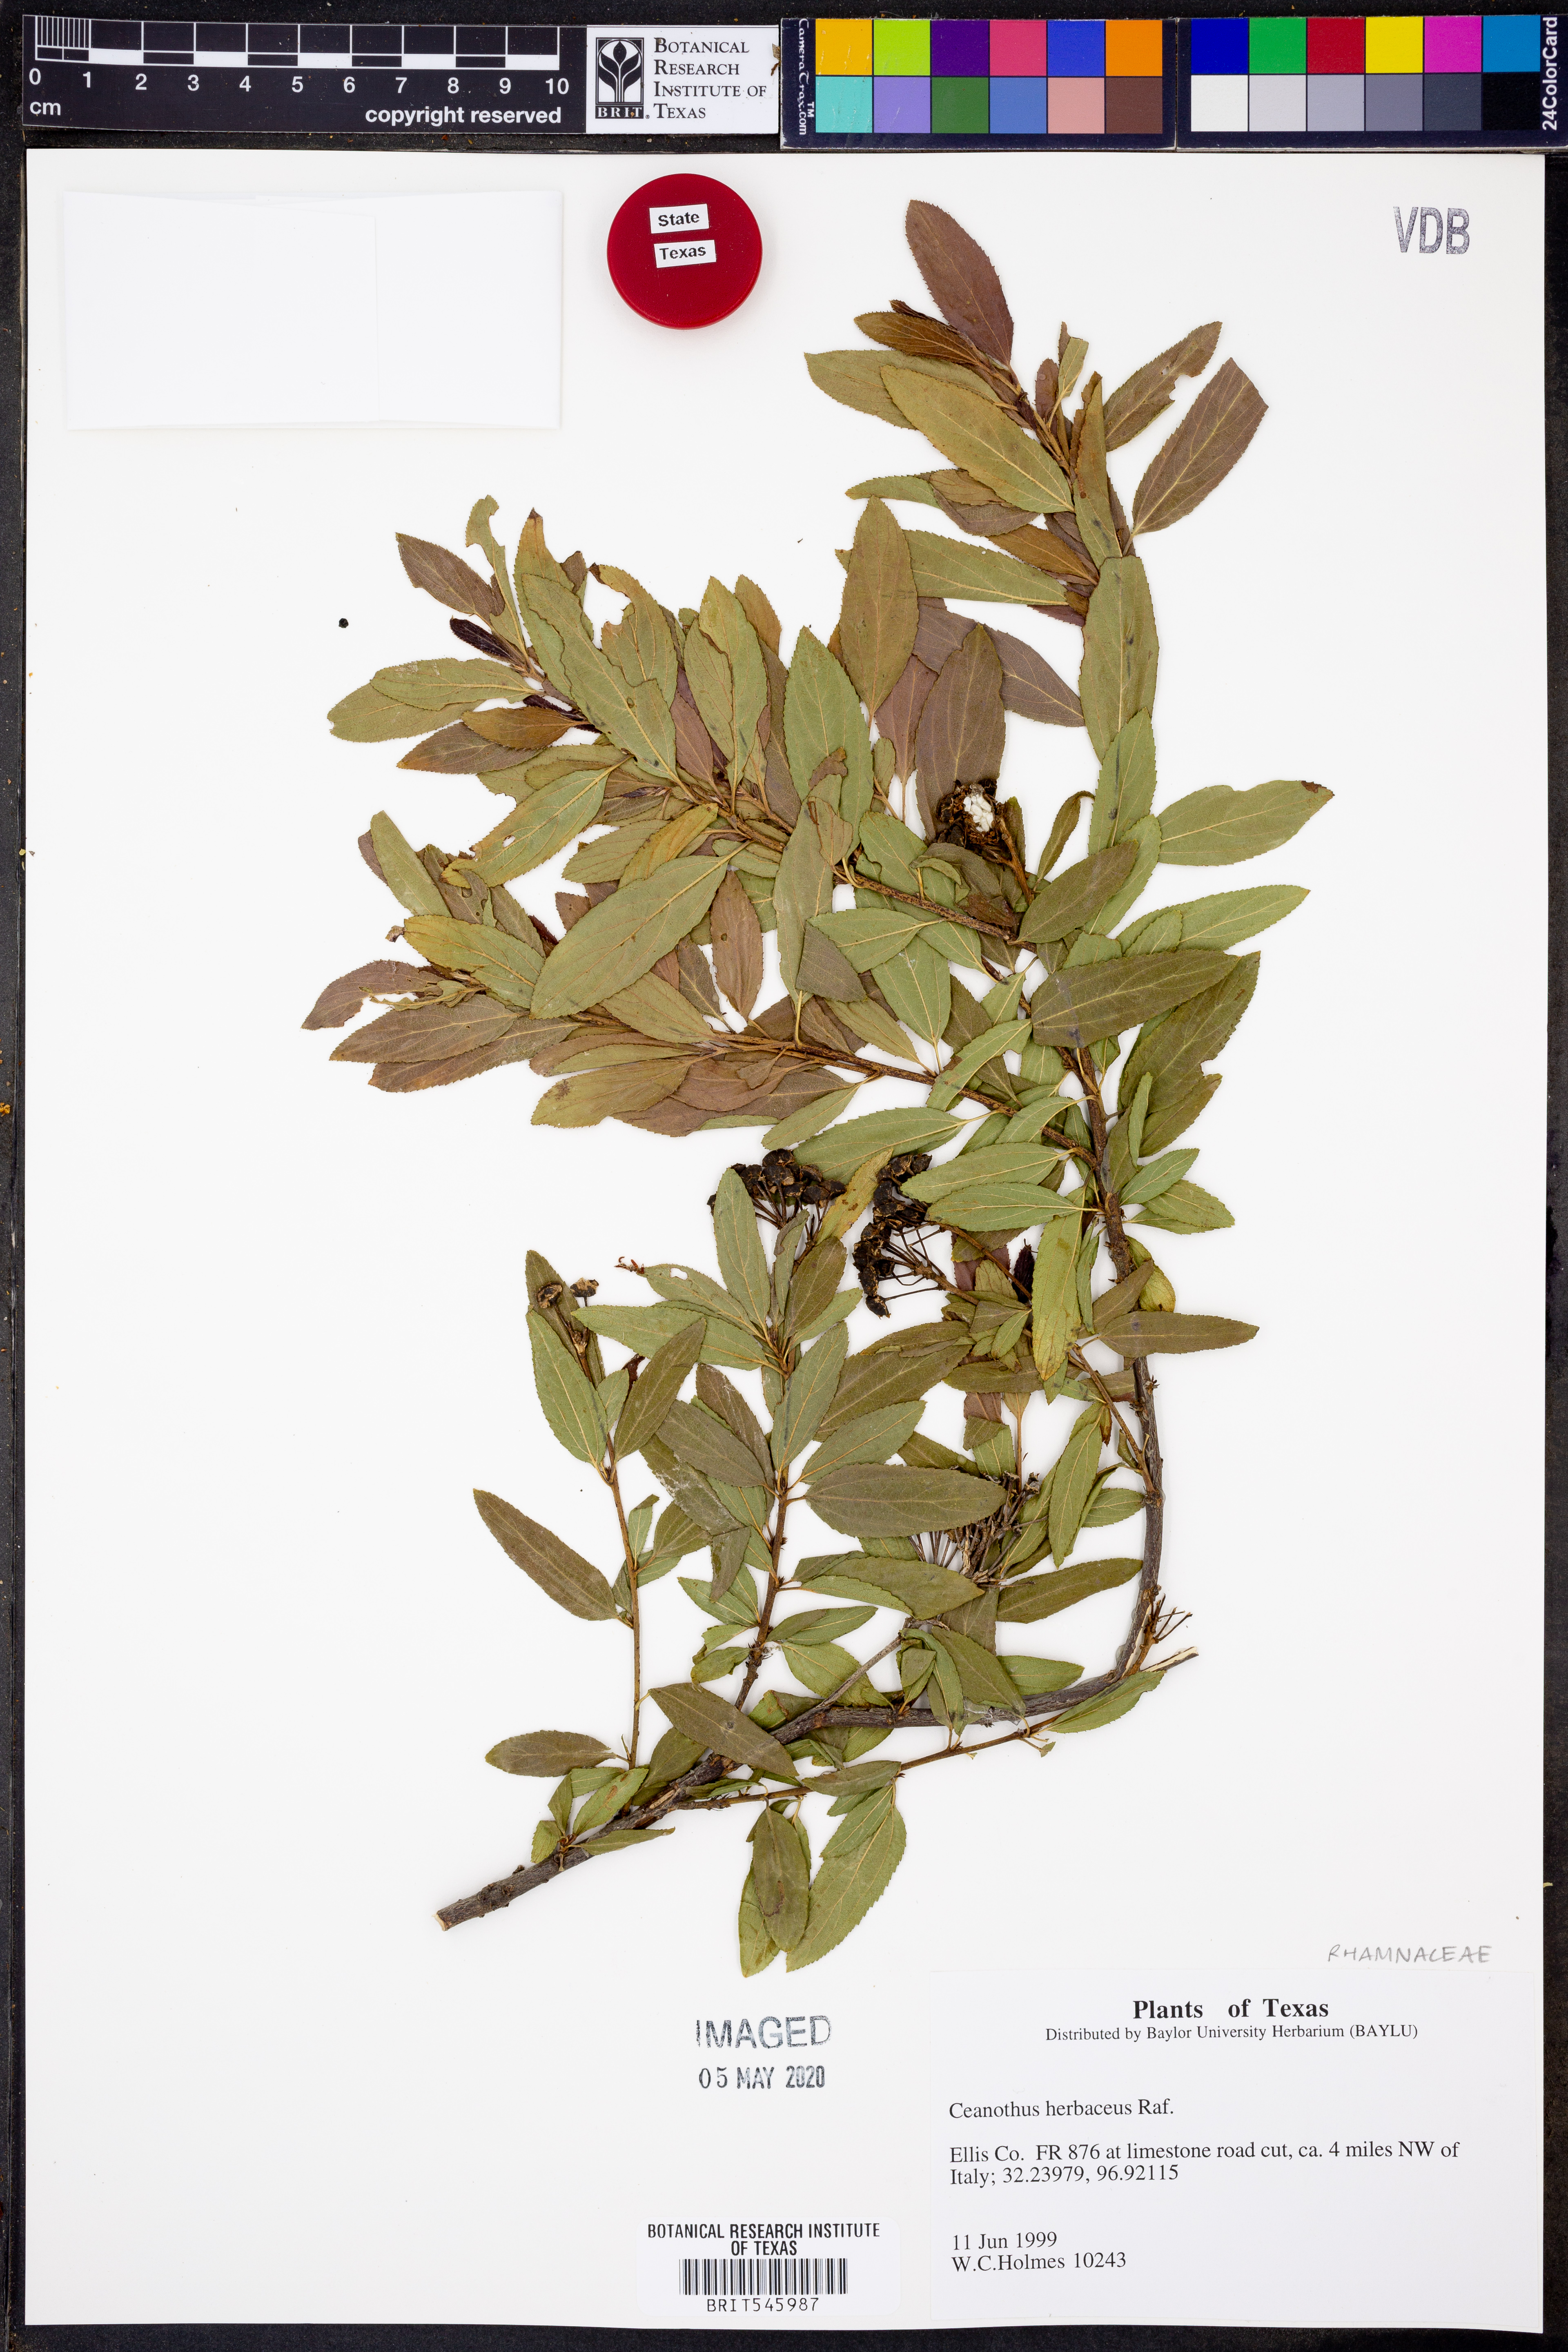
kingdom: Plantae
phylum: Tracheophyta
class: Magnoliopsida
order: Rosales
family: Rhamnaceae
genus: Ceanothus
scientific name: Ceanothus herbaceus
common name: Inland ceanothus
